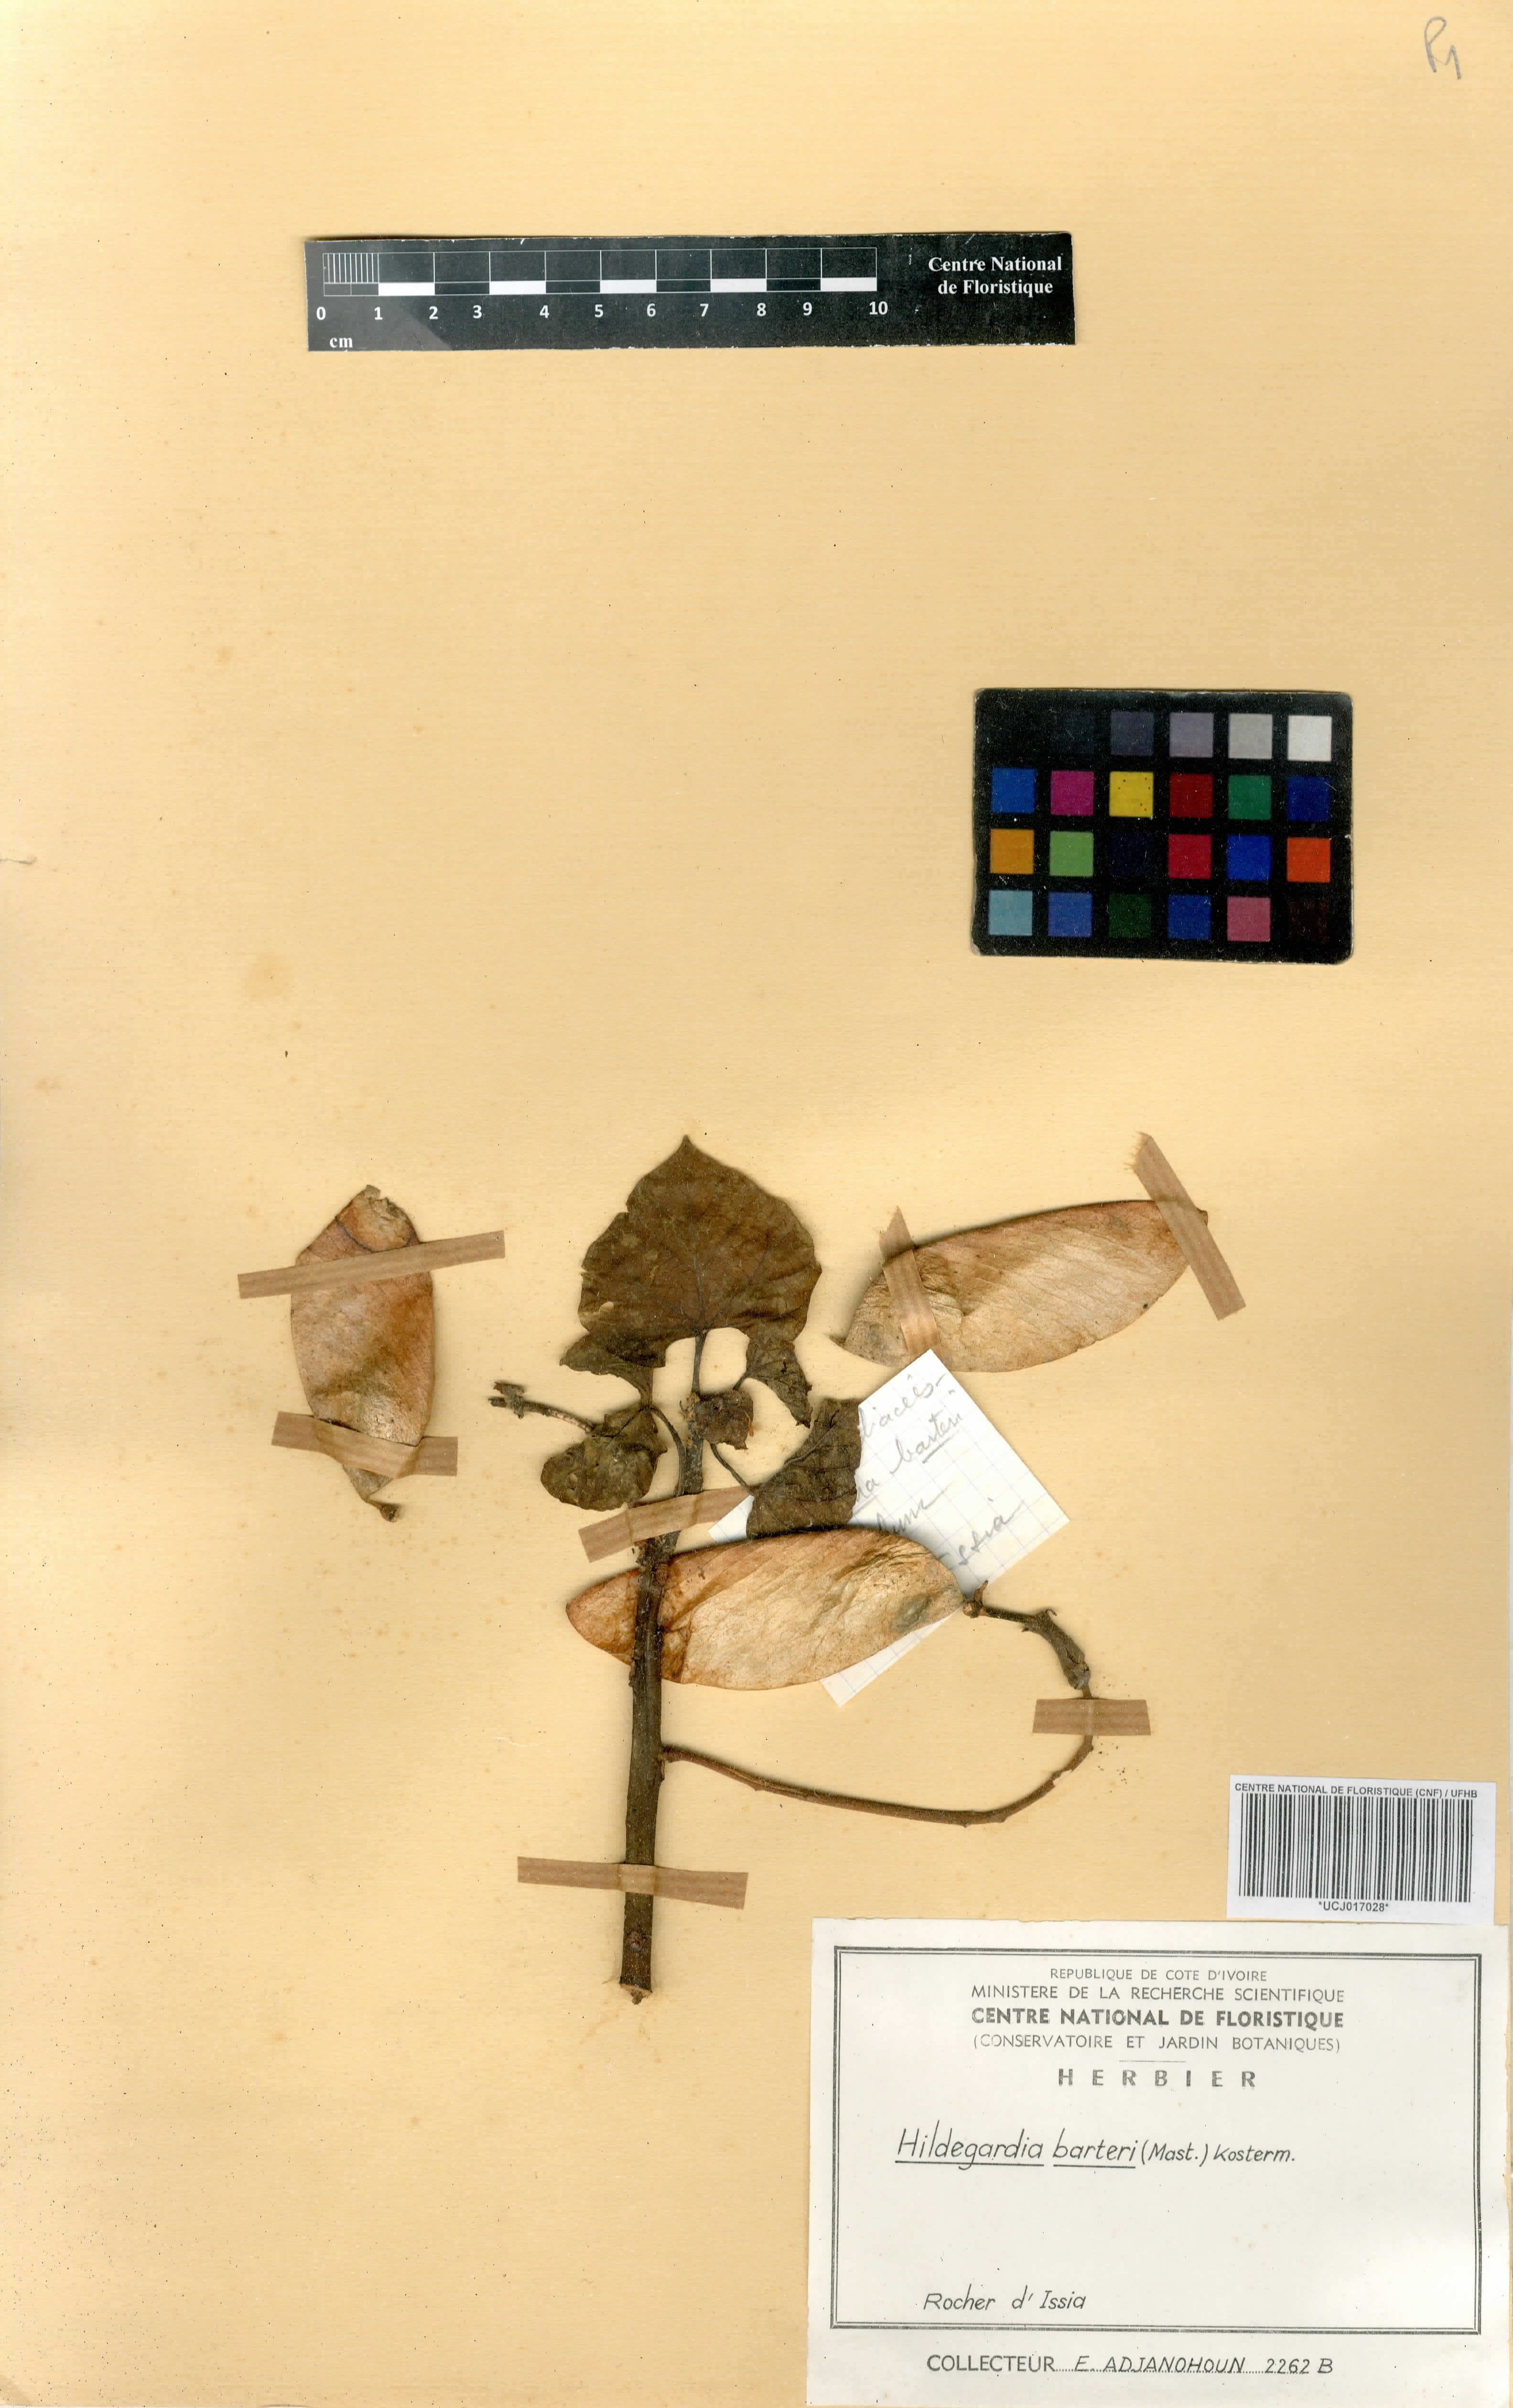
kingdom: Plantae
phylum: Tracheophyta
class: Magnoliopsida
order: Malvales
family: Malvaceae
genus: Hildegardia
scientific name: Hildegardia barteri
